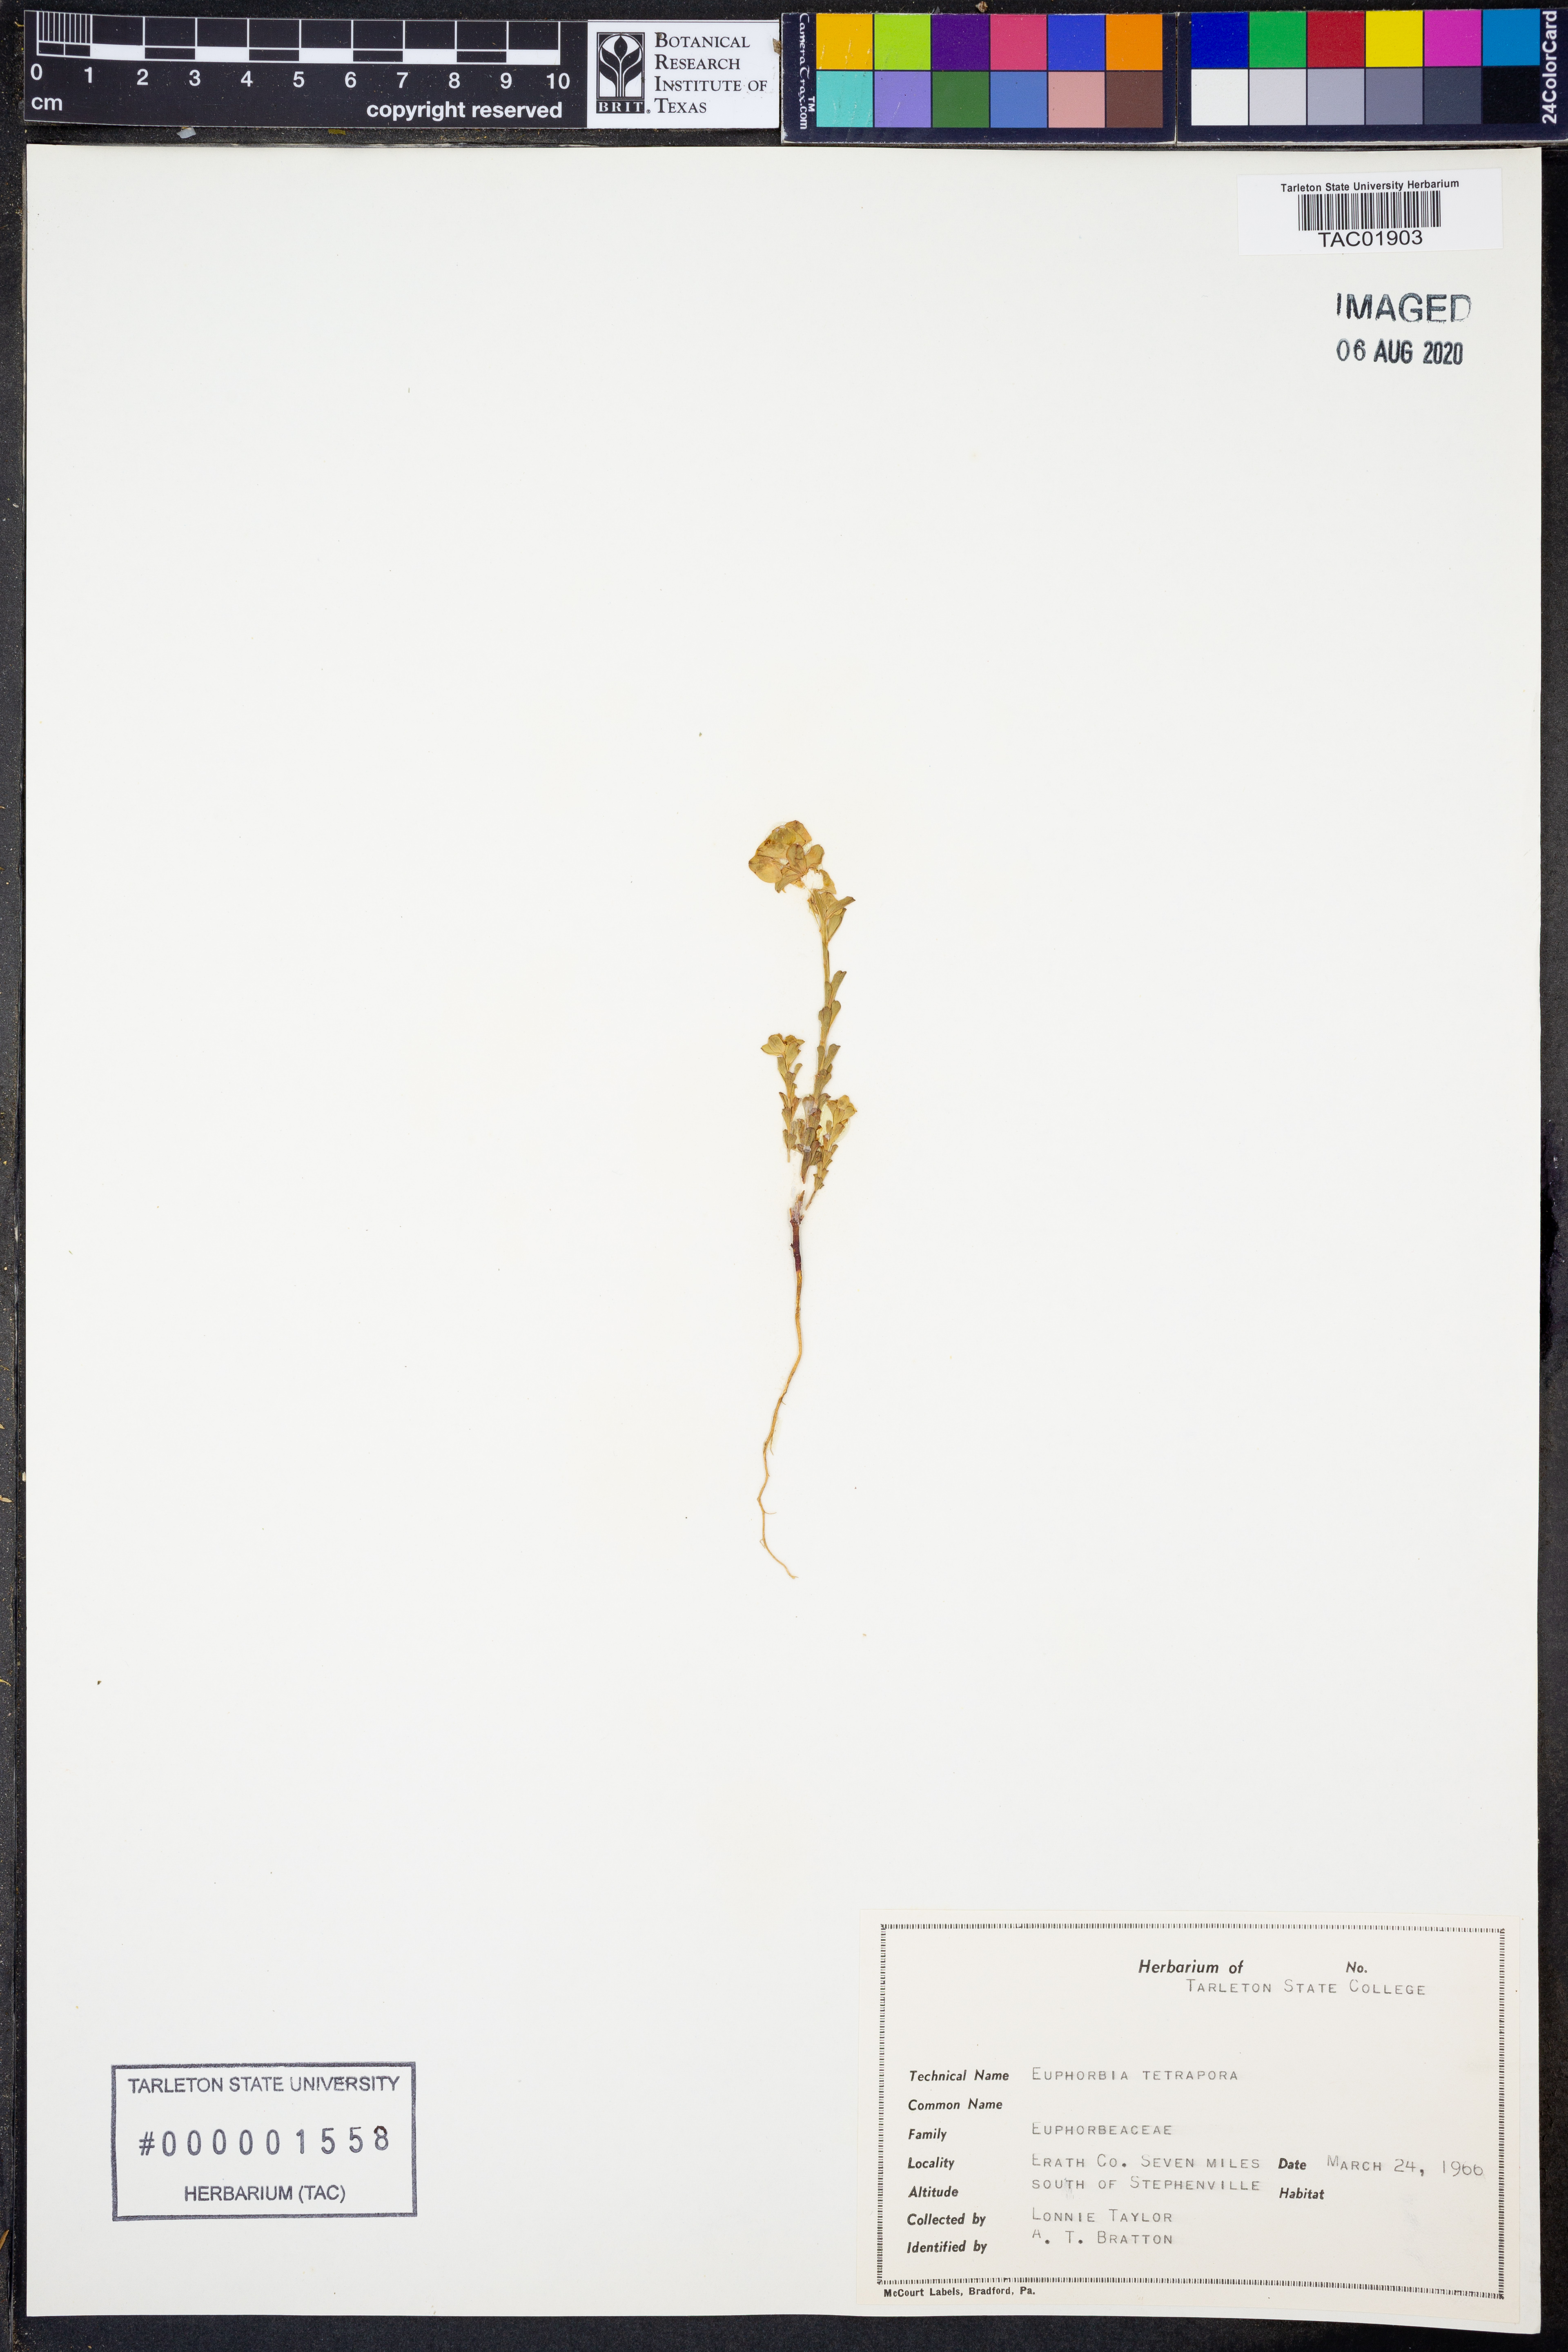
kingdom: Plantae
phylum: Tracheophyta
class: Magnoliopsida
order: Malpighiales
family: Euphorbiaceae
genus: Euphorbia
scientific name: Euphorbia tetrapora
